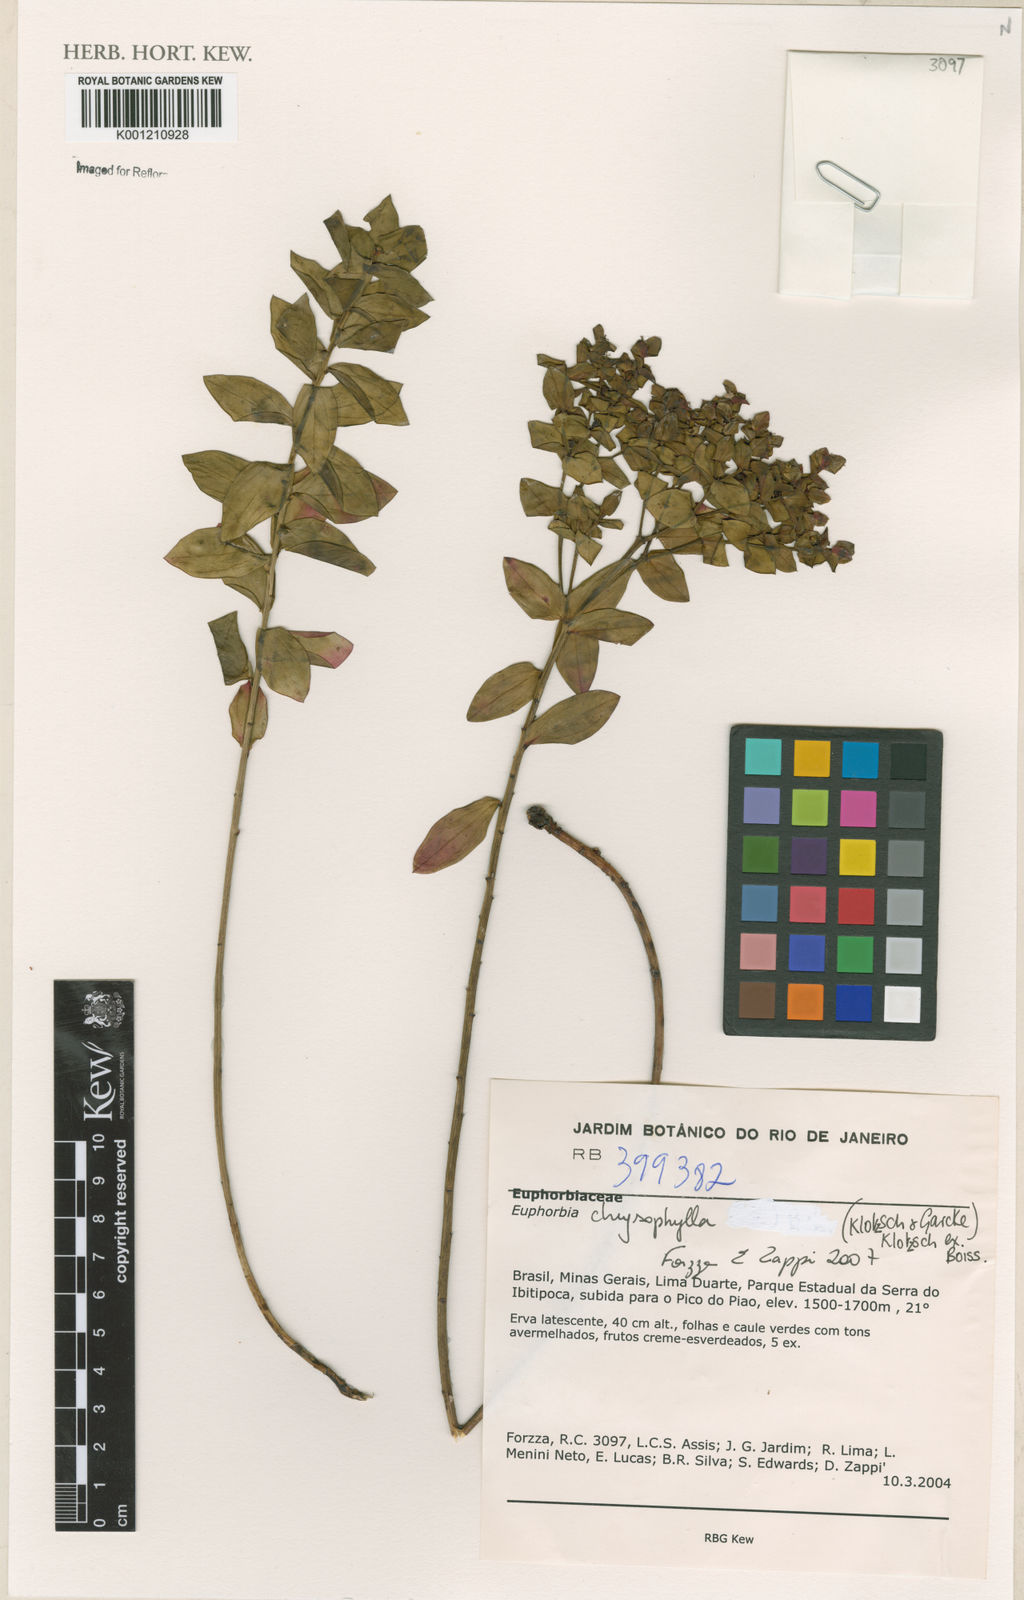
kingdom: Plantae
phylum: Tracheophyta
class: Magnoliopsida
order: Malpighiales
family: Euphorbiaceae
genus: Euphorbia
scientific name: Euphorbia chrysophylla
